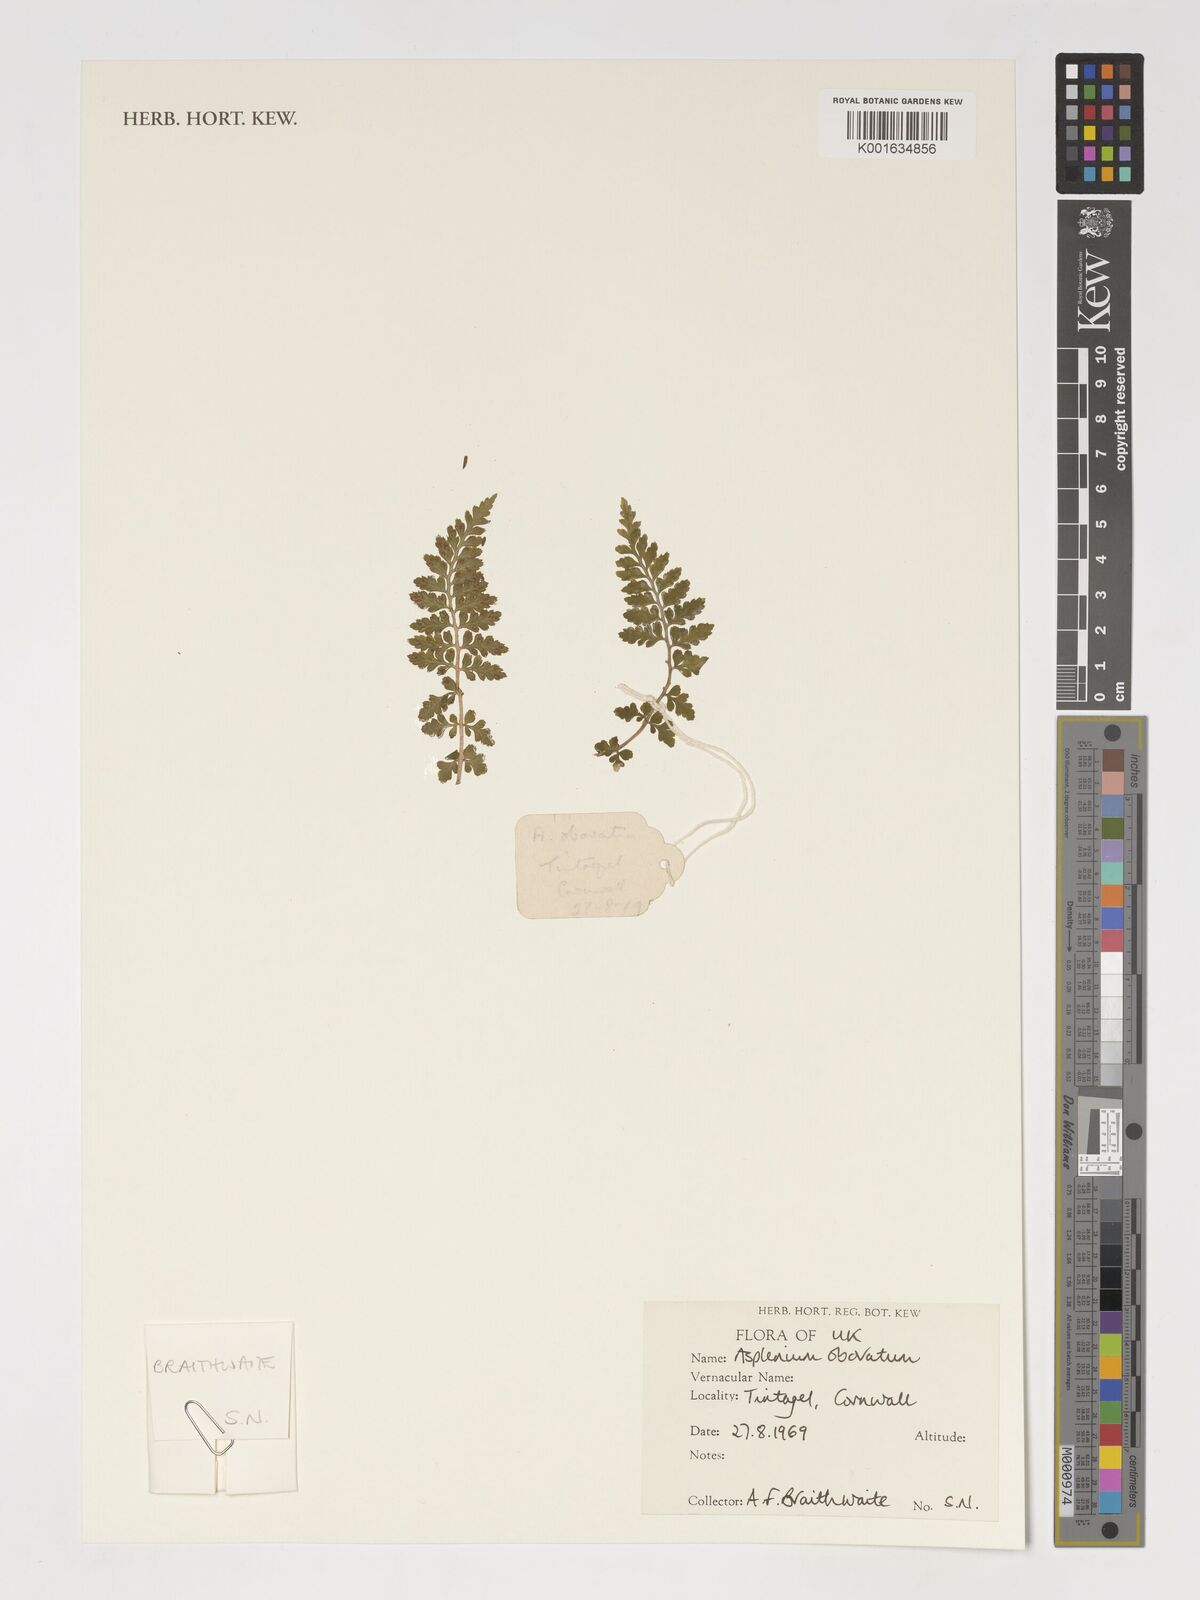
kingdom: Plantae
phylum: Tracheophyta
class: Polypodiopsida
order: Polypodiales
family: Aspleniaceae
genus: Asplenium
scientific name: Asplenium obovatum
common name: Lanceolate spleenwort
